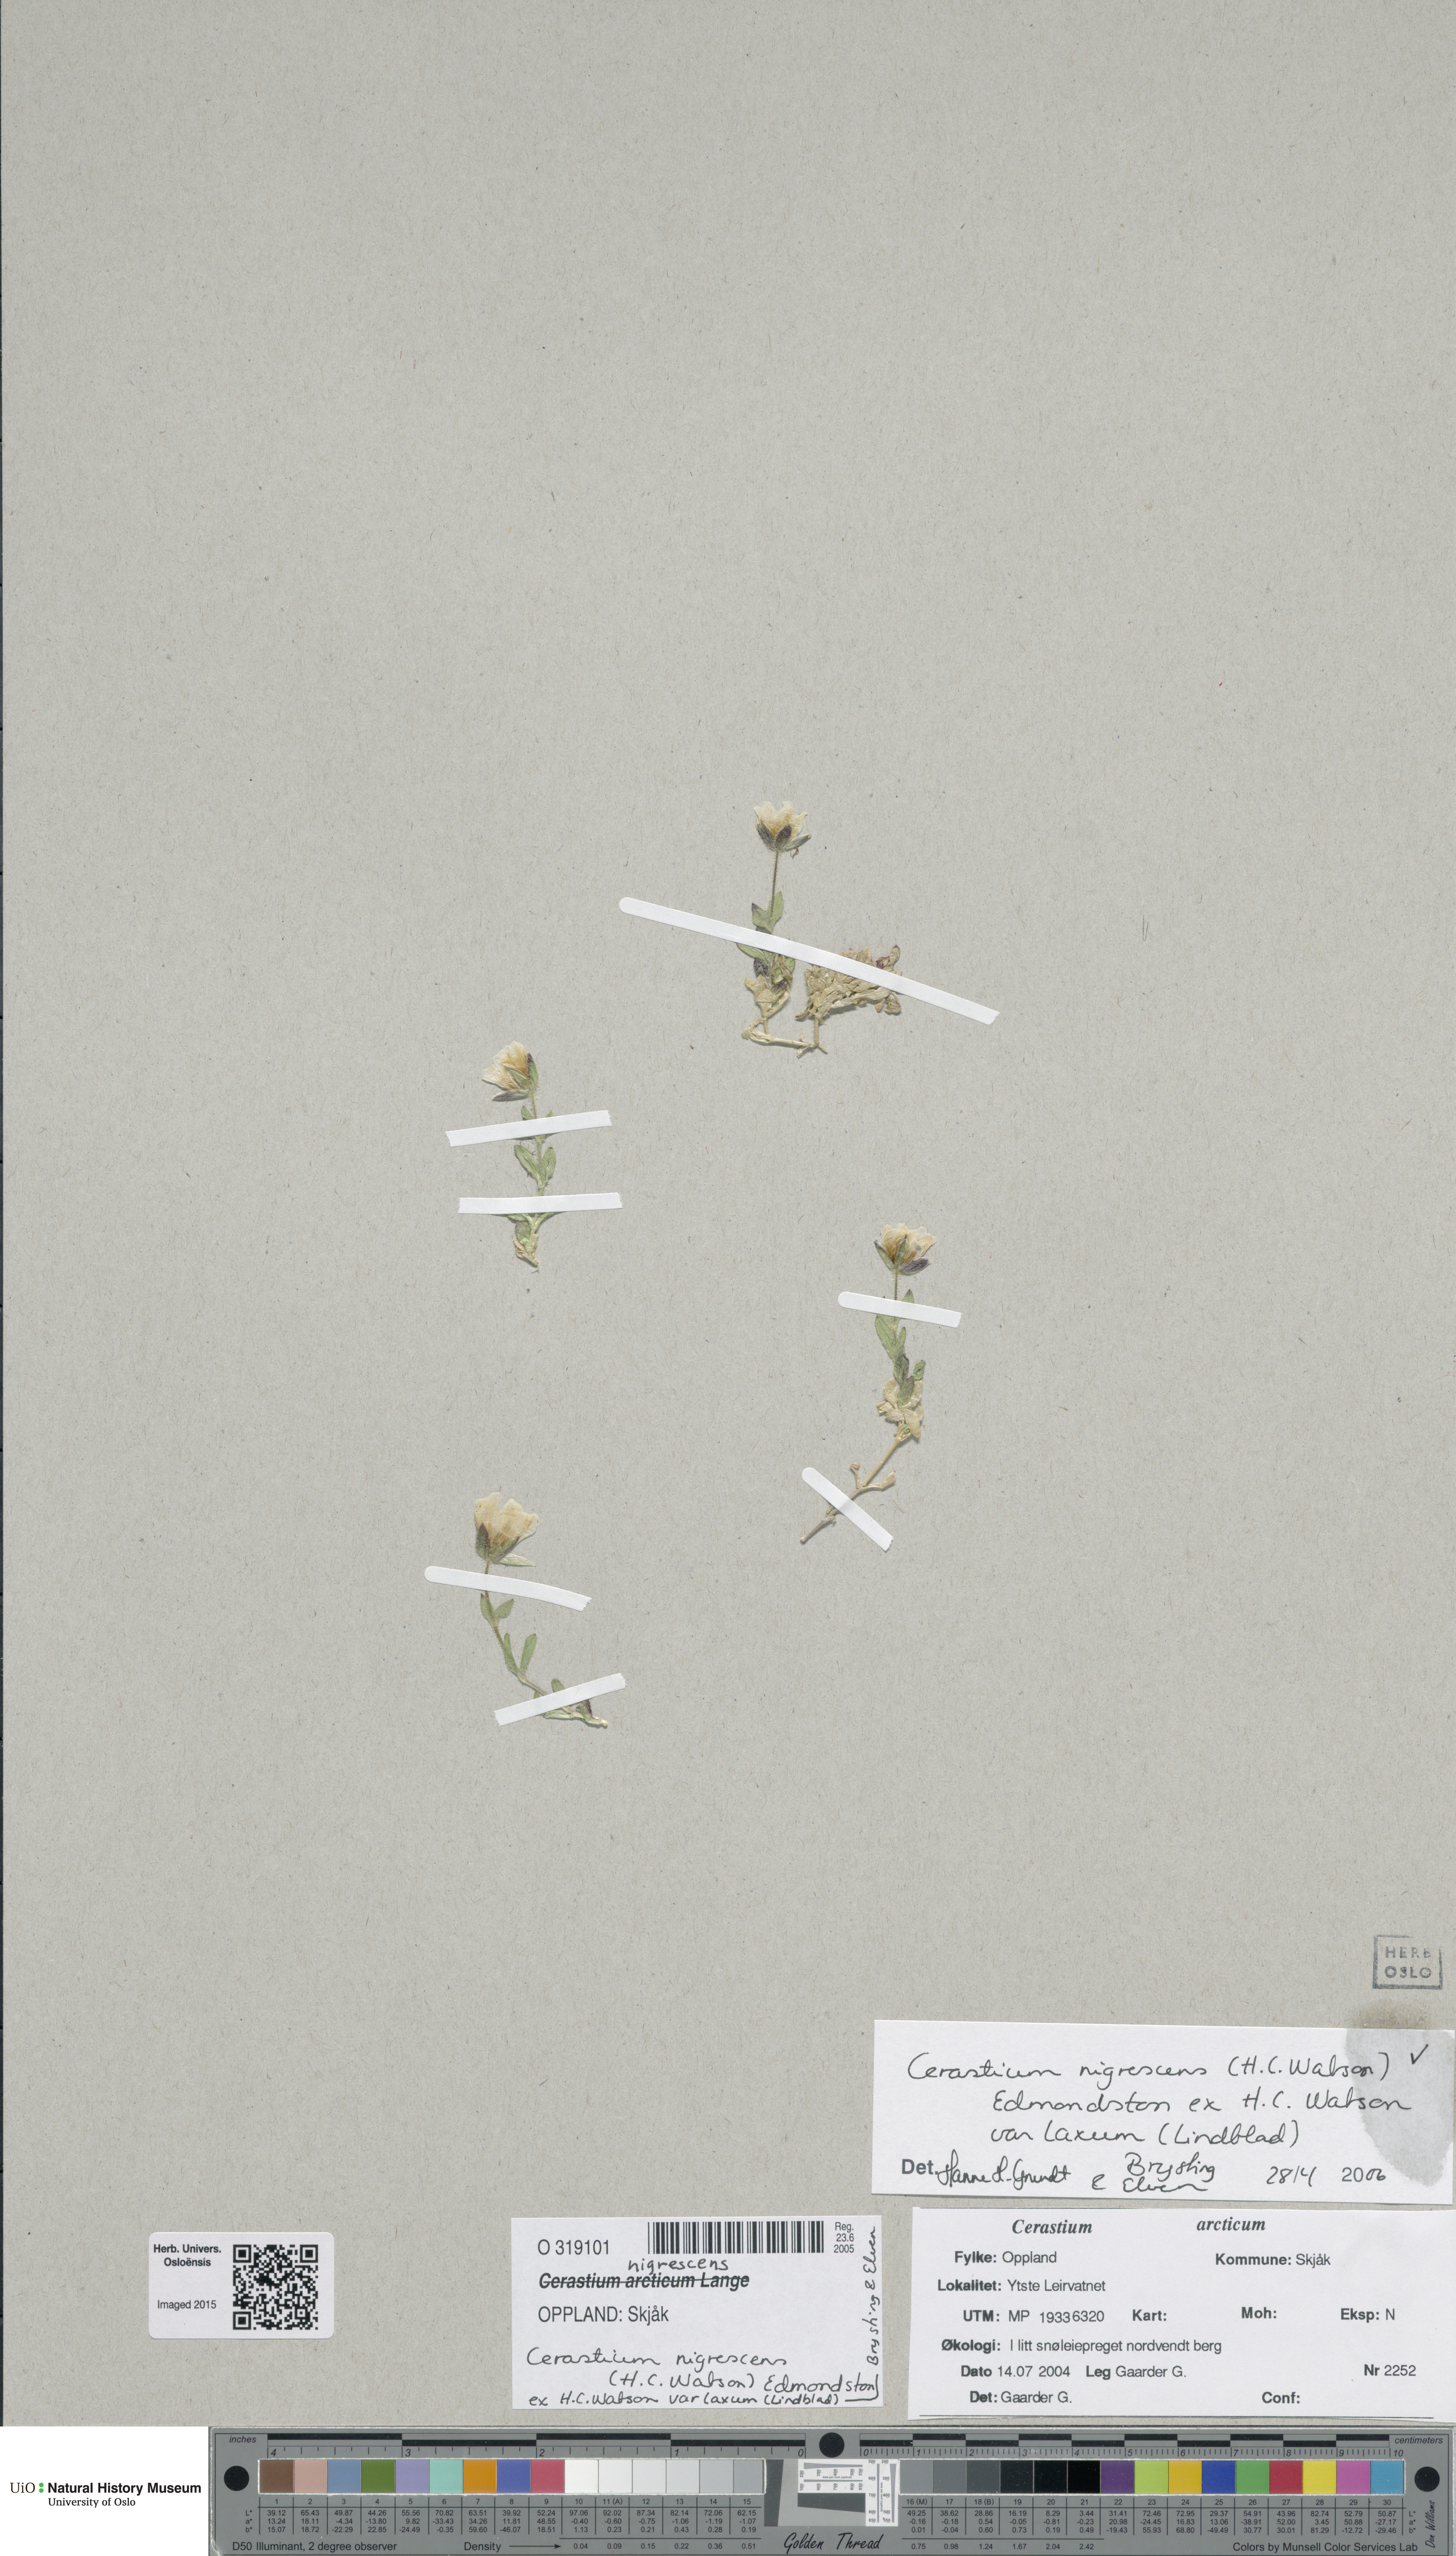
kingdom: Plantae
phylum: Tracheophyta
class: Magnoliopsida
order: Caryophyllales
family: Caryophyllaceae
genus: Cerastium
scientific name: Cerastium nigrescens
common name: Shetland mouse-ear
